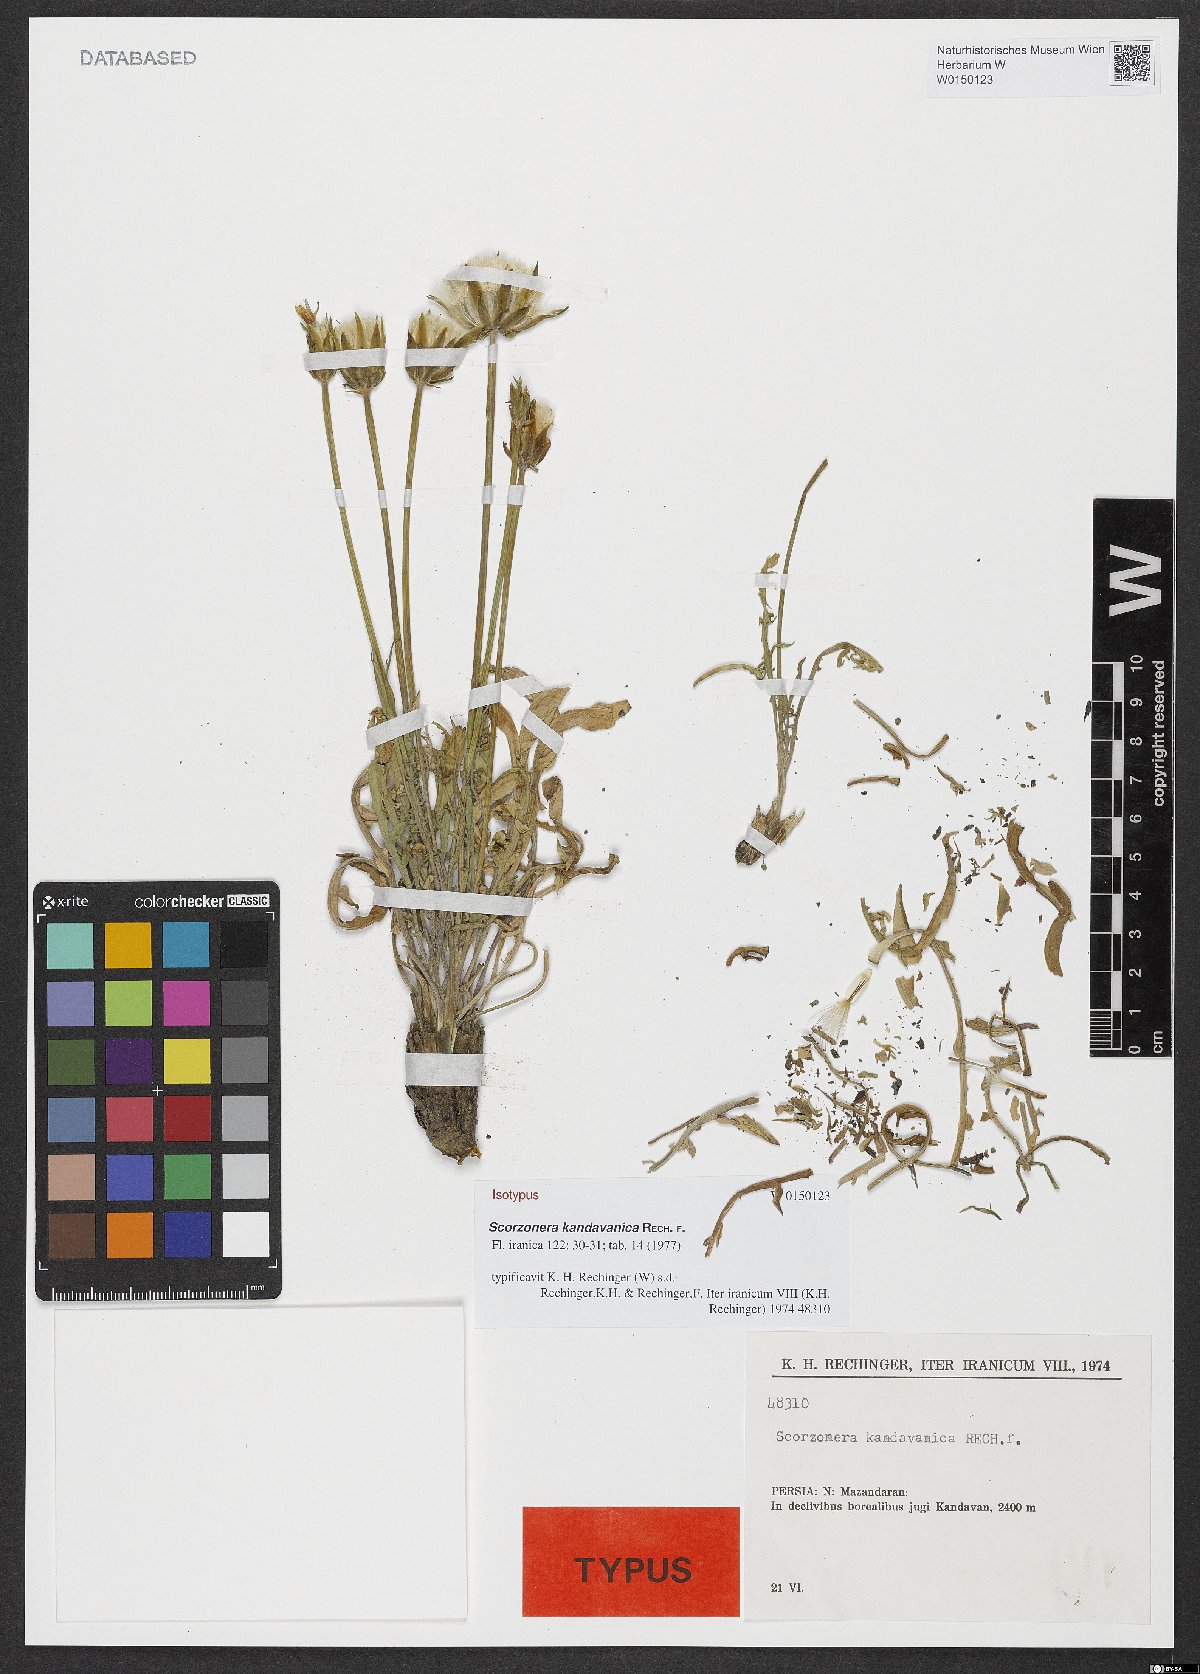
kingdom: Plantae
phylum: Tracheophyta
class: Magnoliopsida
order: Asterales
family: Asteraceae
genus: Scorzonera
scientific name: Scorzonera kandavanica
